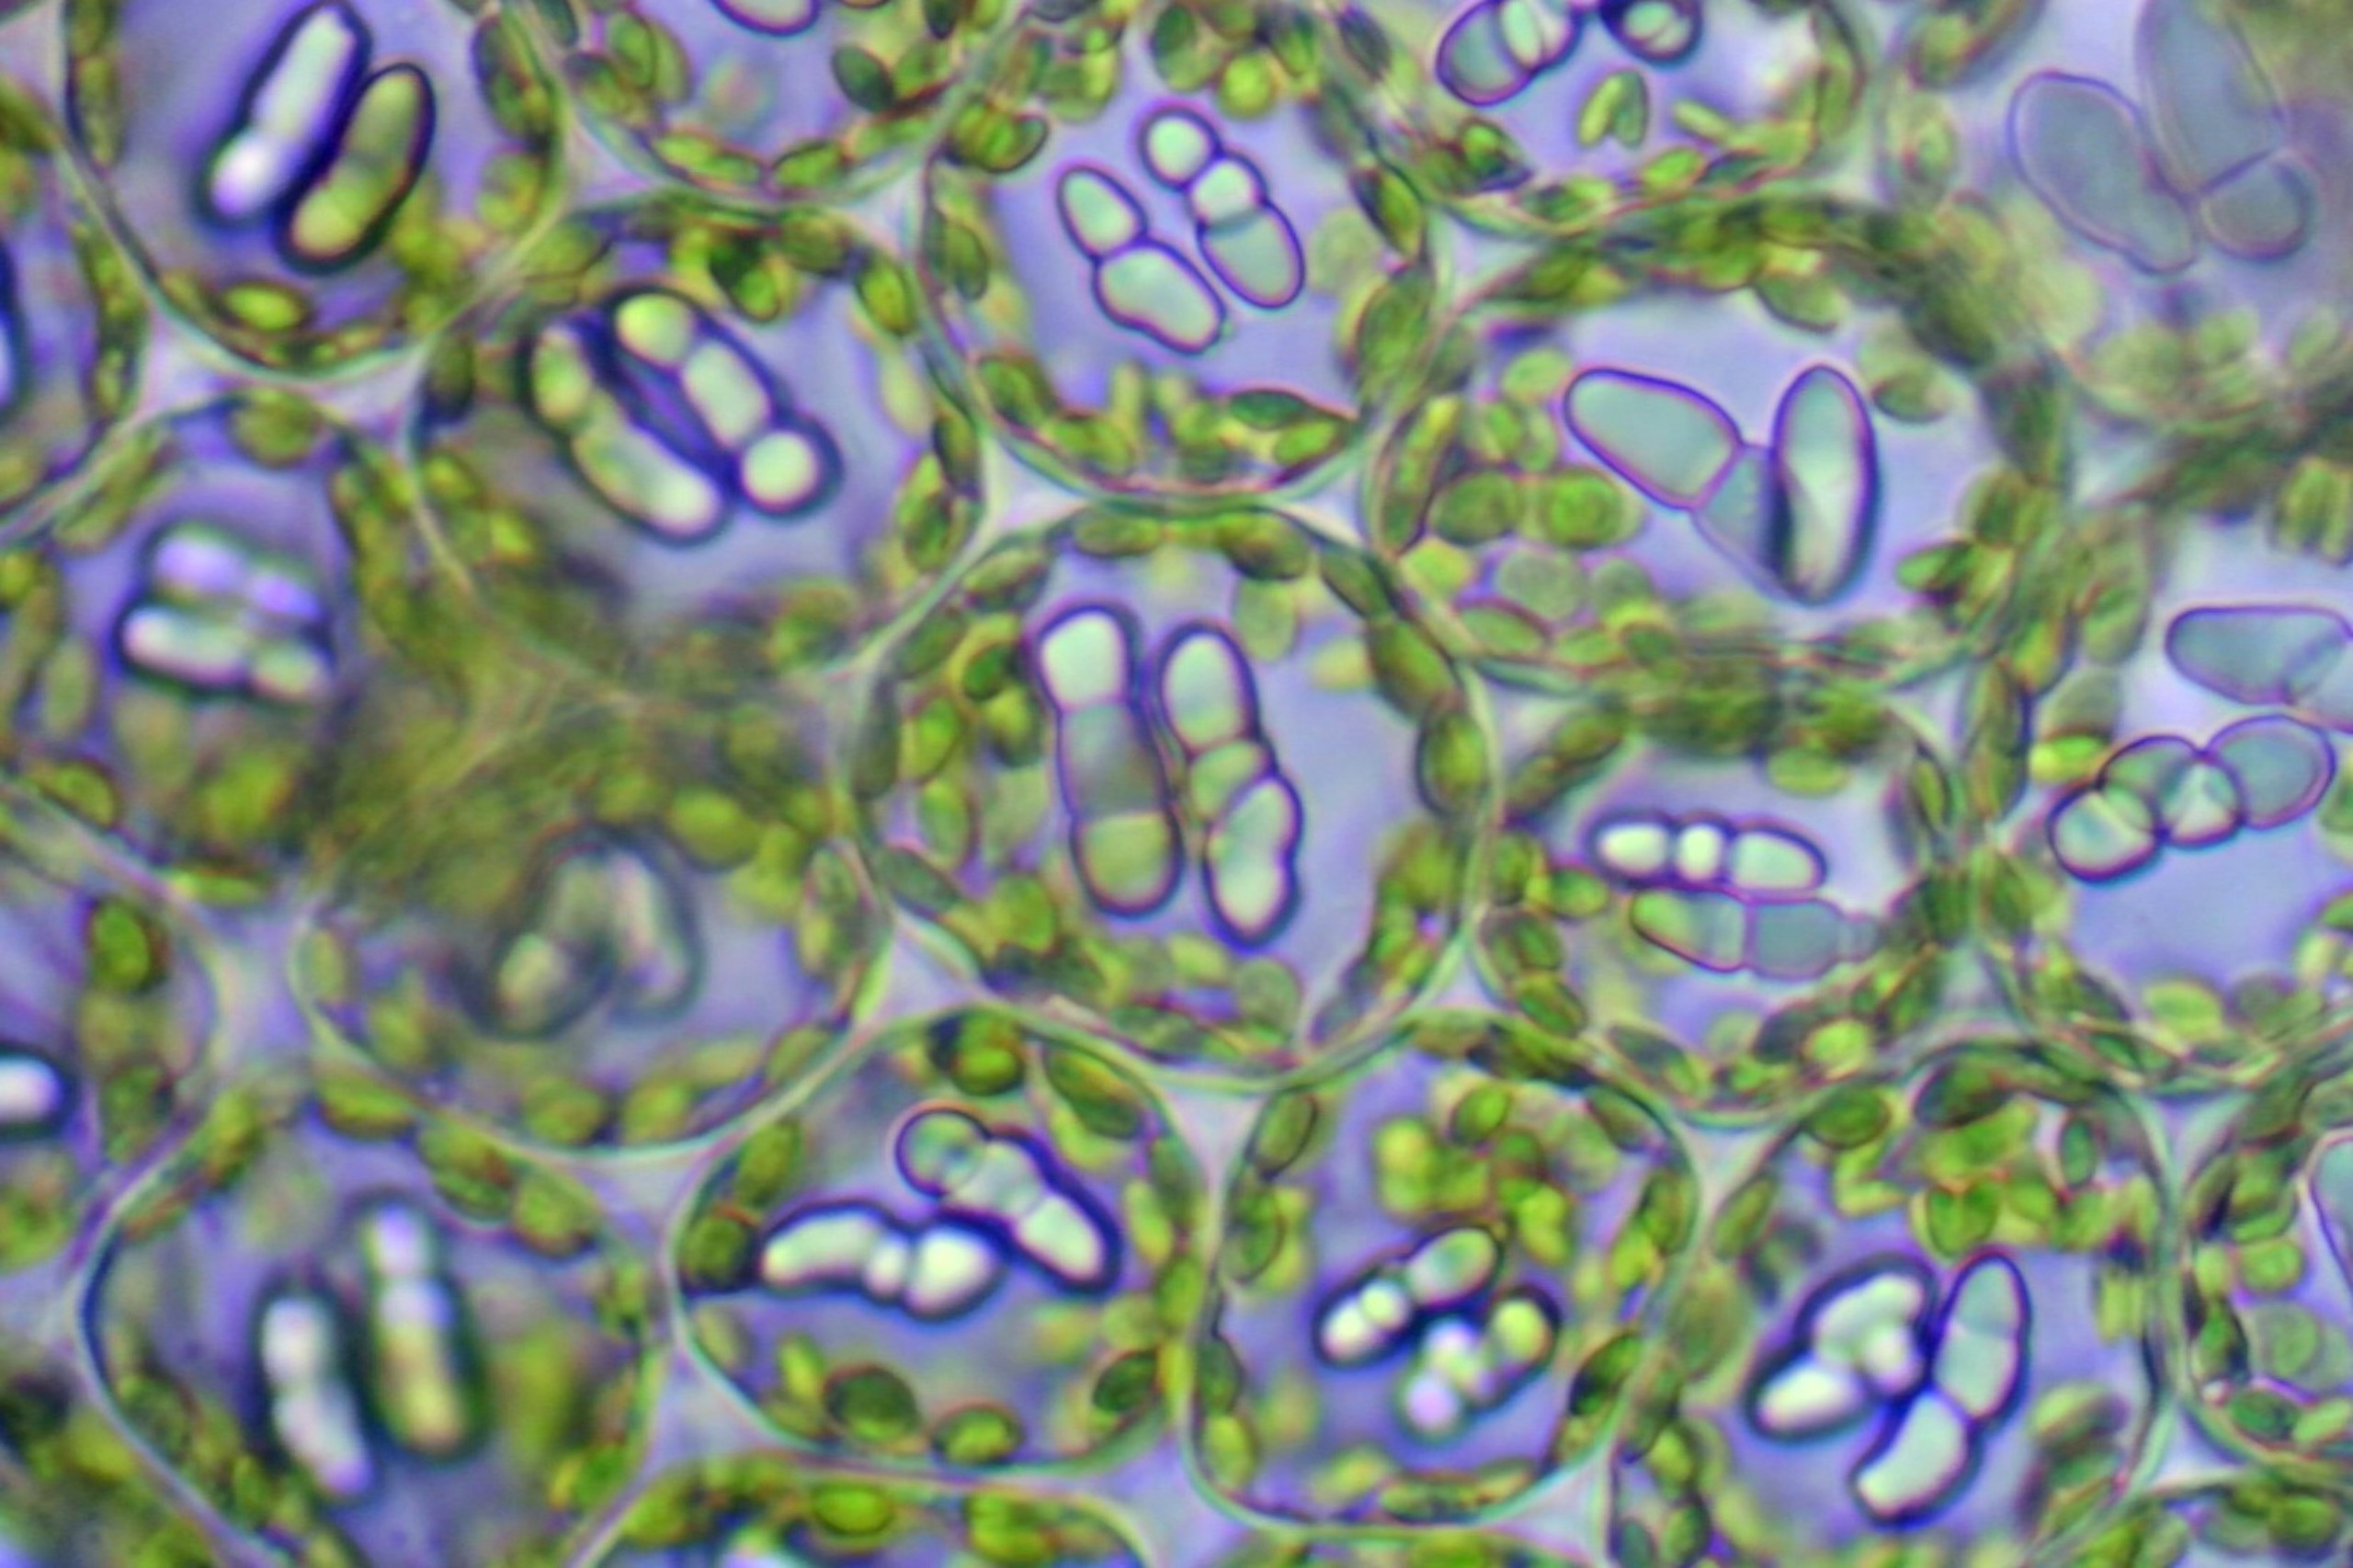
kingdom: Plantae
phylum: Marchantiophyta
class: Jungermanniopsida
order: Jungermanniales
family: Gymnomitriaceae
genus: Nardia
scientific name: Nardia scalaris
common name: Tæt kappesvøb
